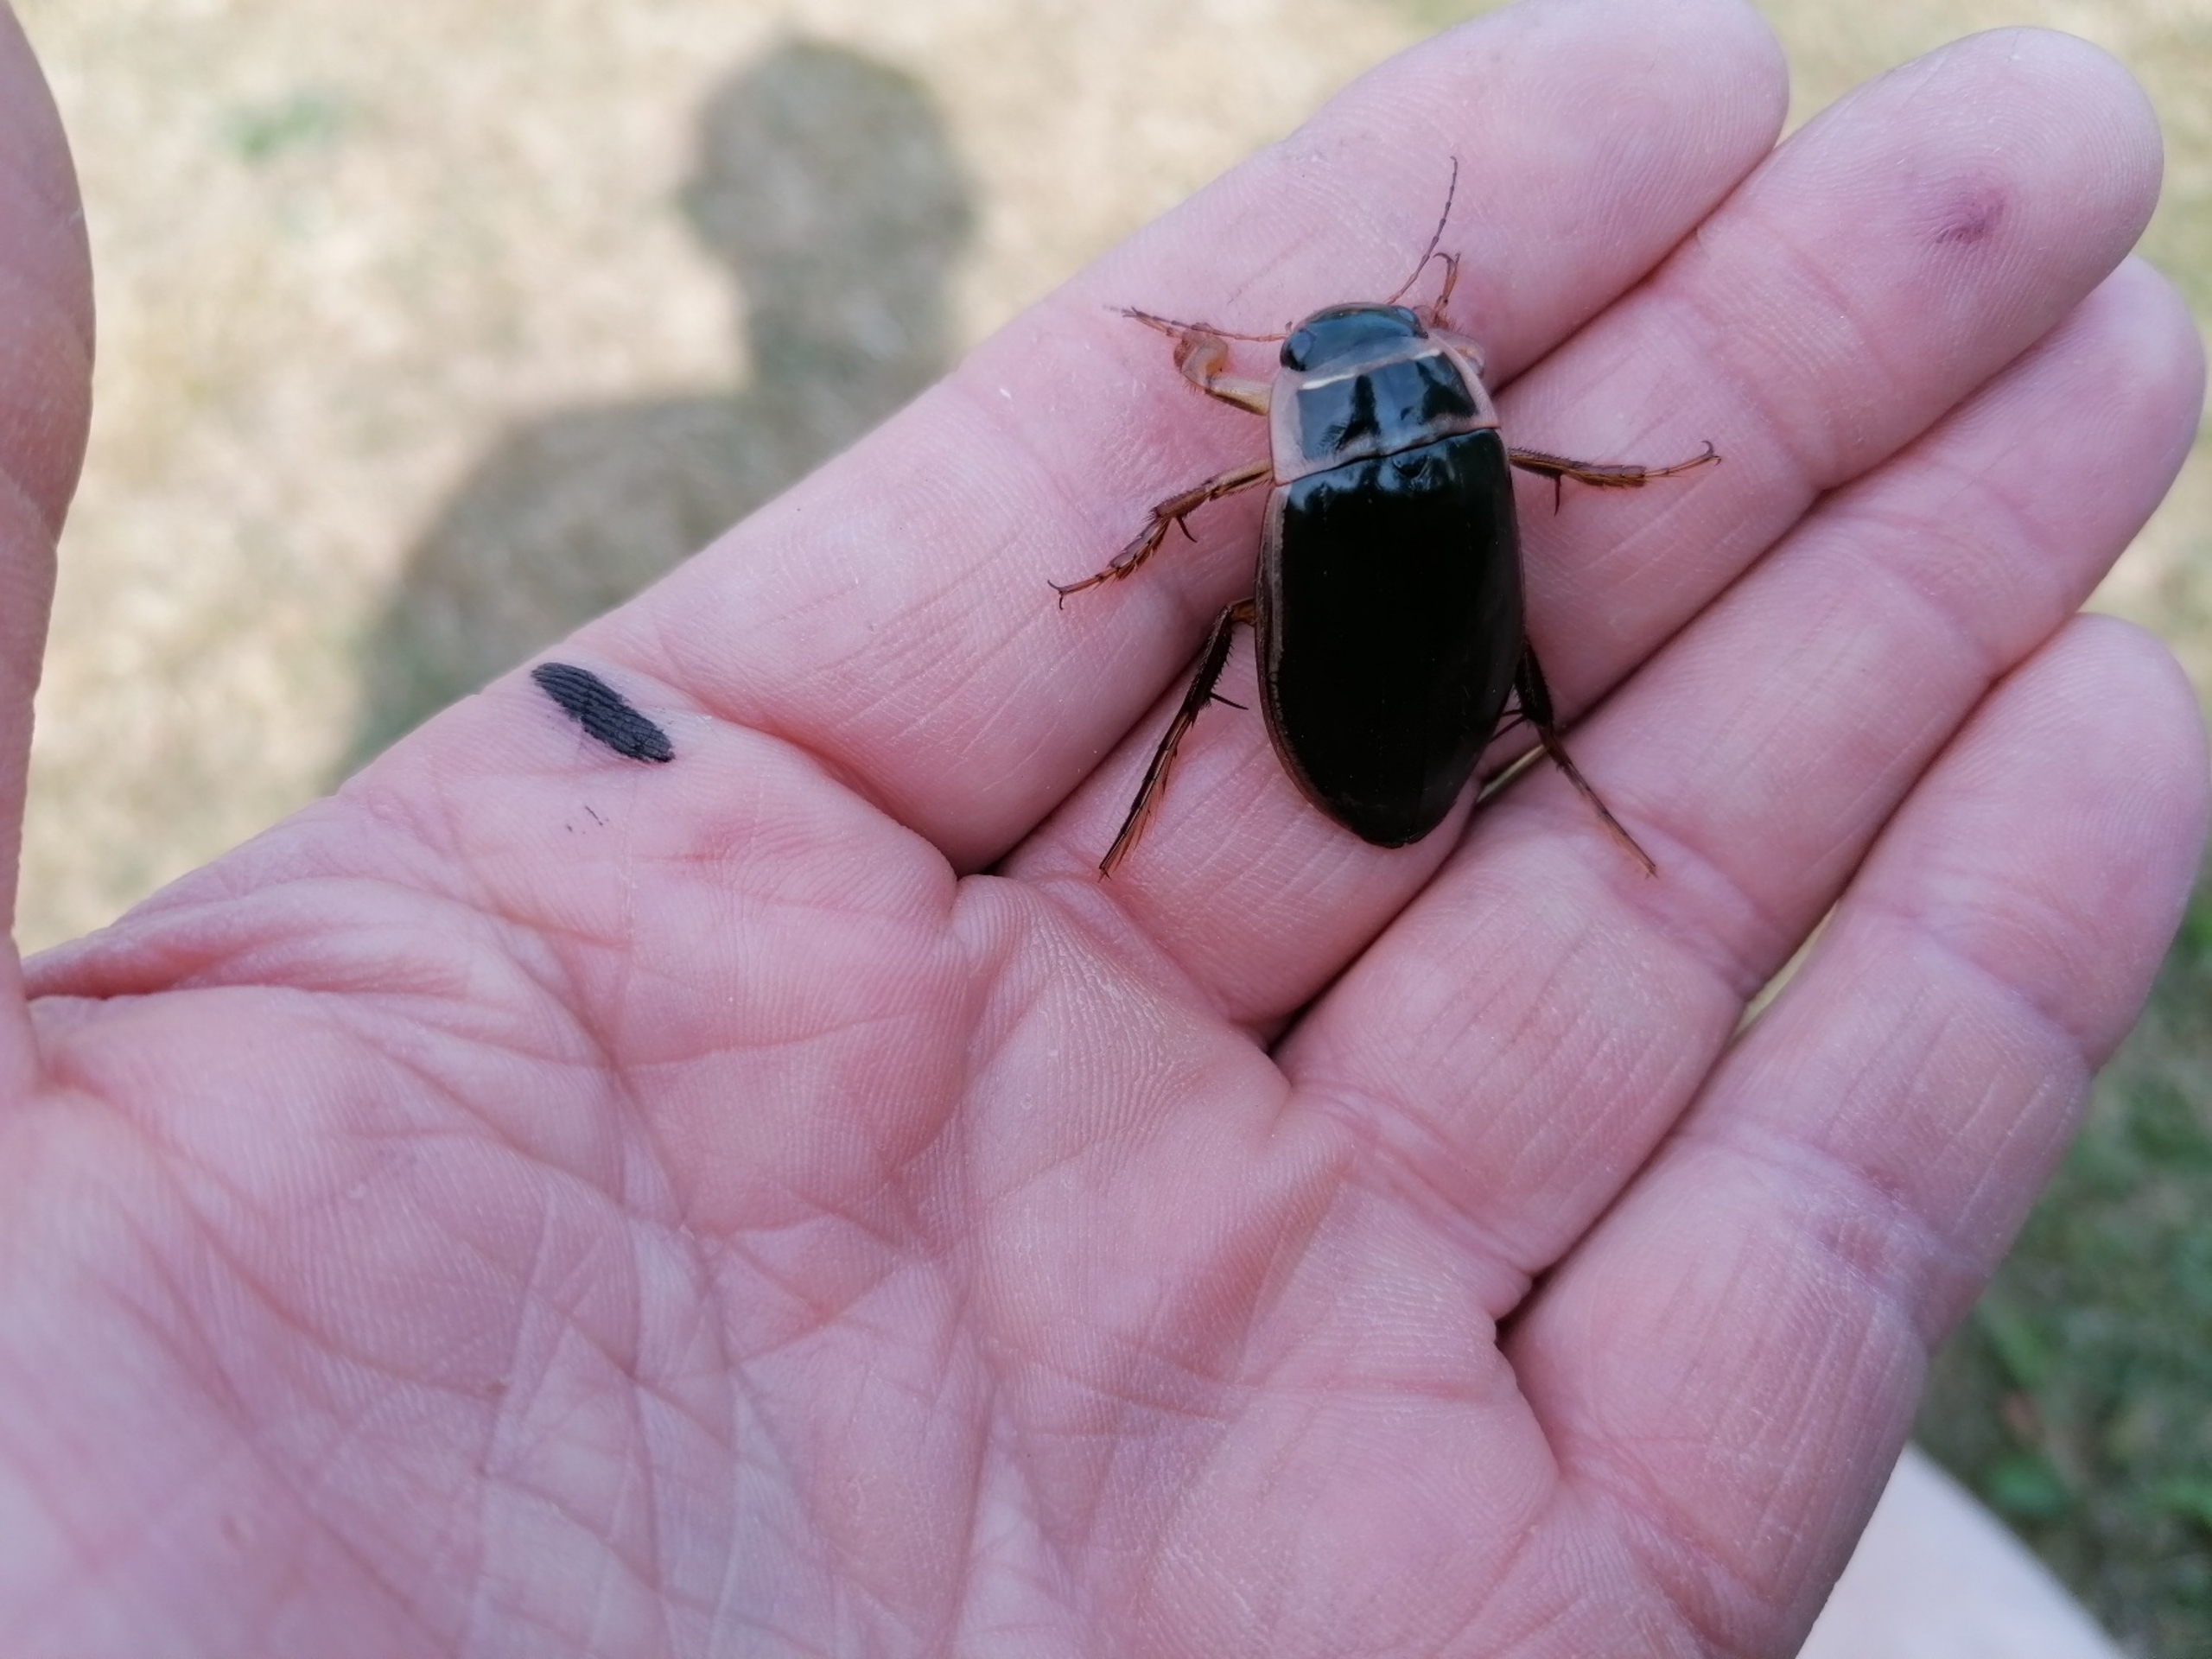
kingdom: Animalia
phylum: Arthropoda
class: Insecta
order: Coleoptera
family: Dytiscidae
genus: Dytiscus
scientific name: Dytiscus marginalis
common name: Stor vandkalv
